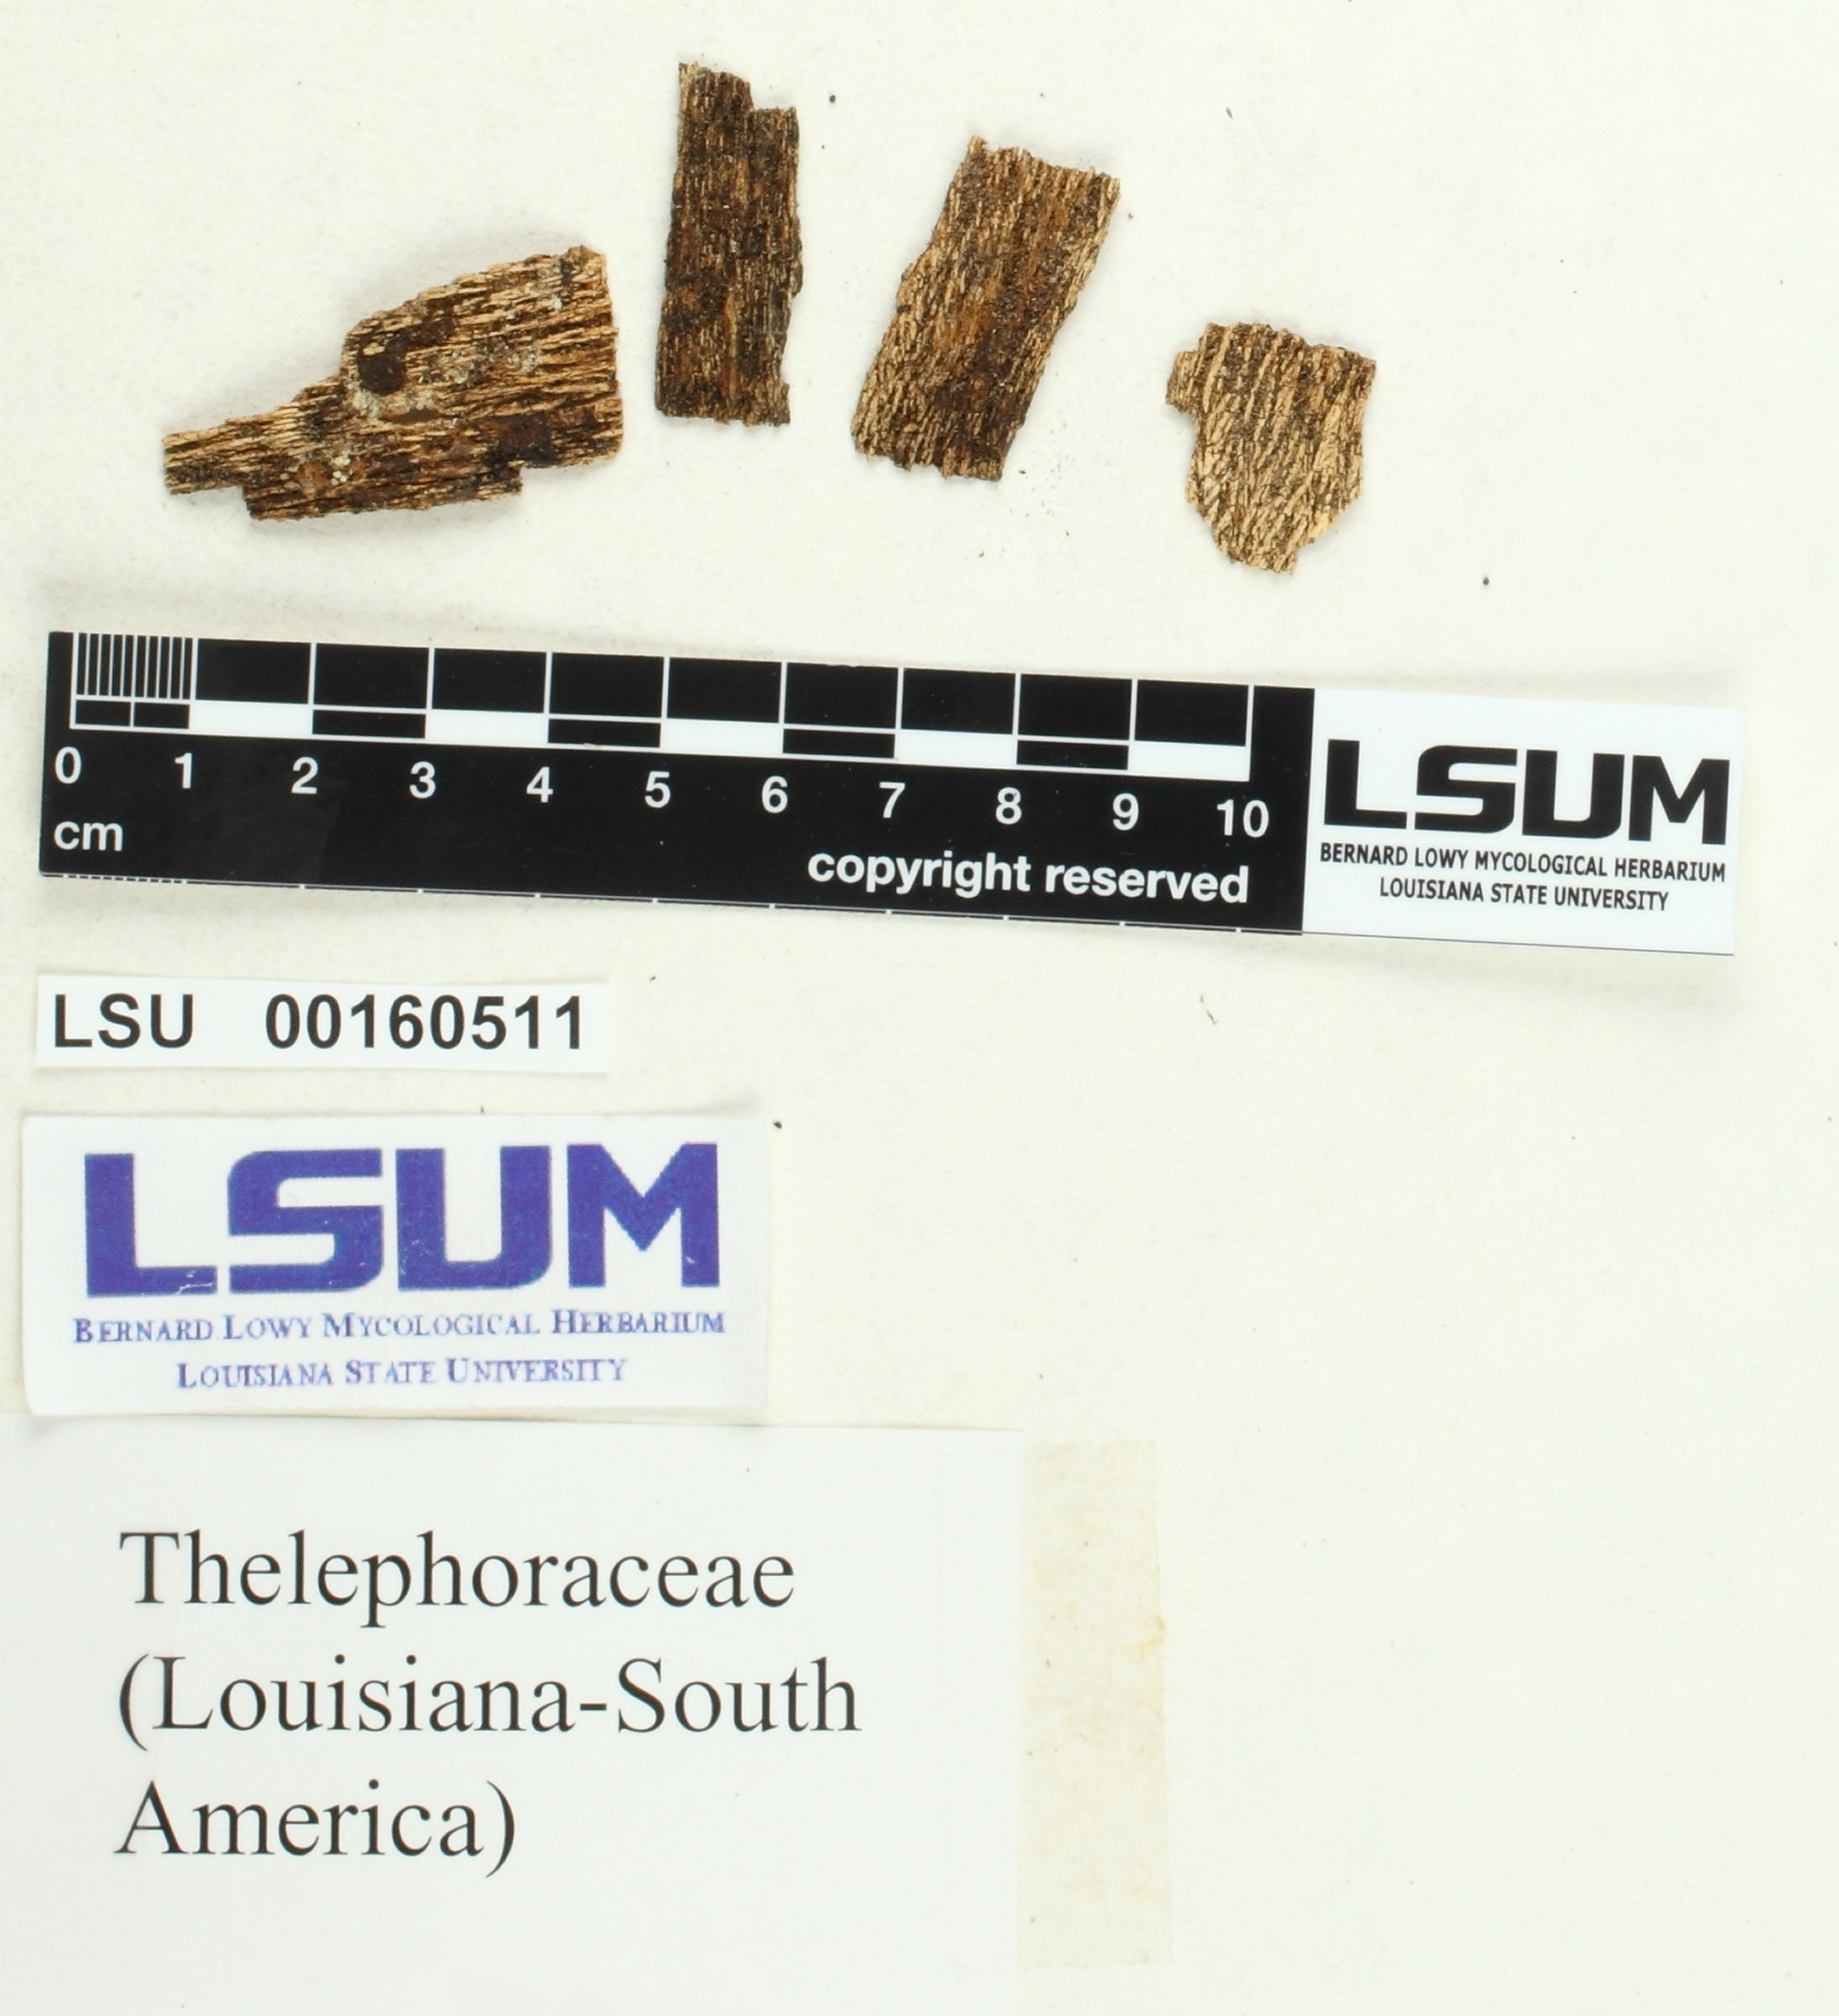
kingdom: Fungi
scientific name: Fungi
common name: Fungi
